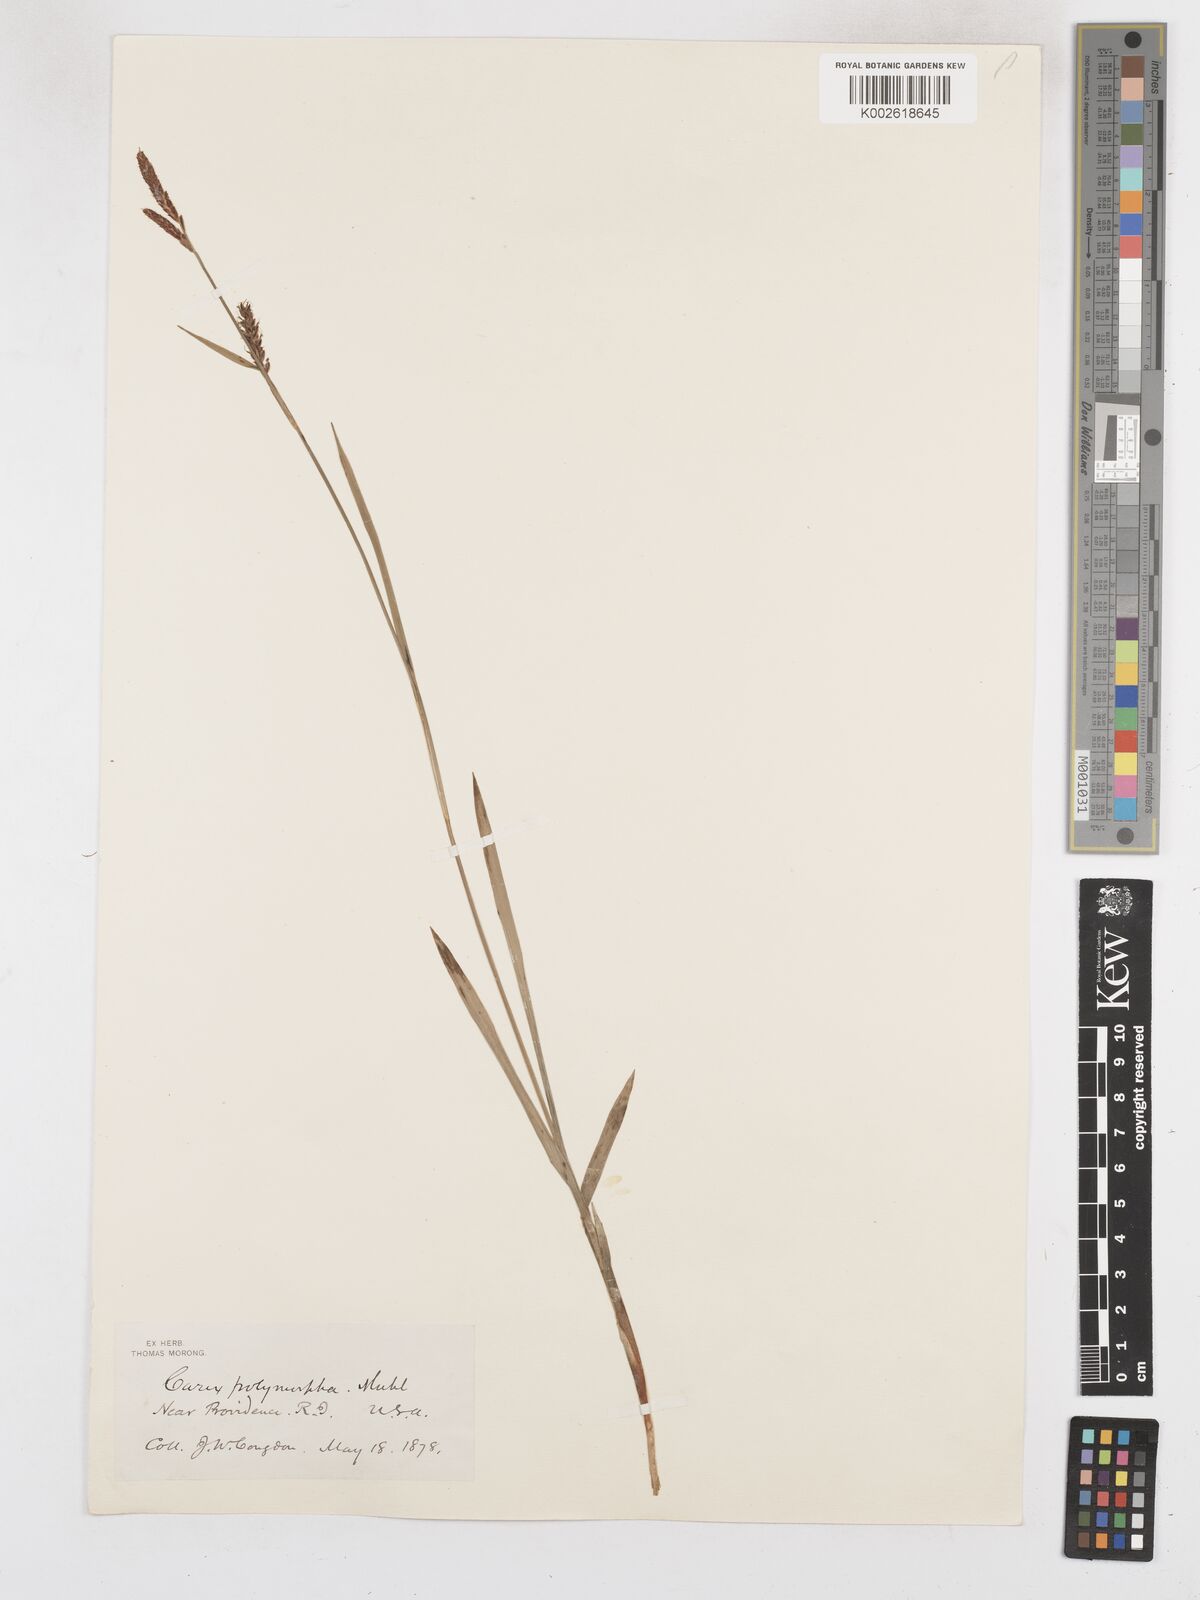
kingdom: Plantae
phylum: Tracheophyta
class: Liliopsida
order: Poales
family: Cyperaceae
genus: Carex
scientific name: Carex polymorpha
